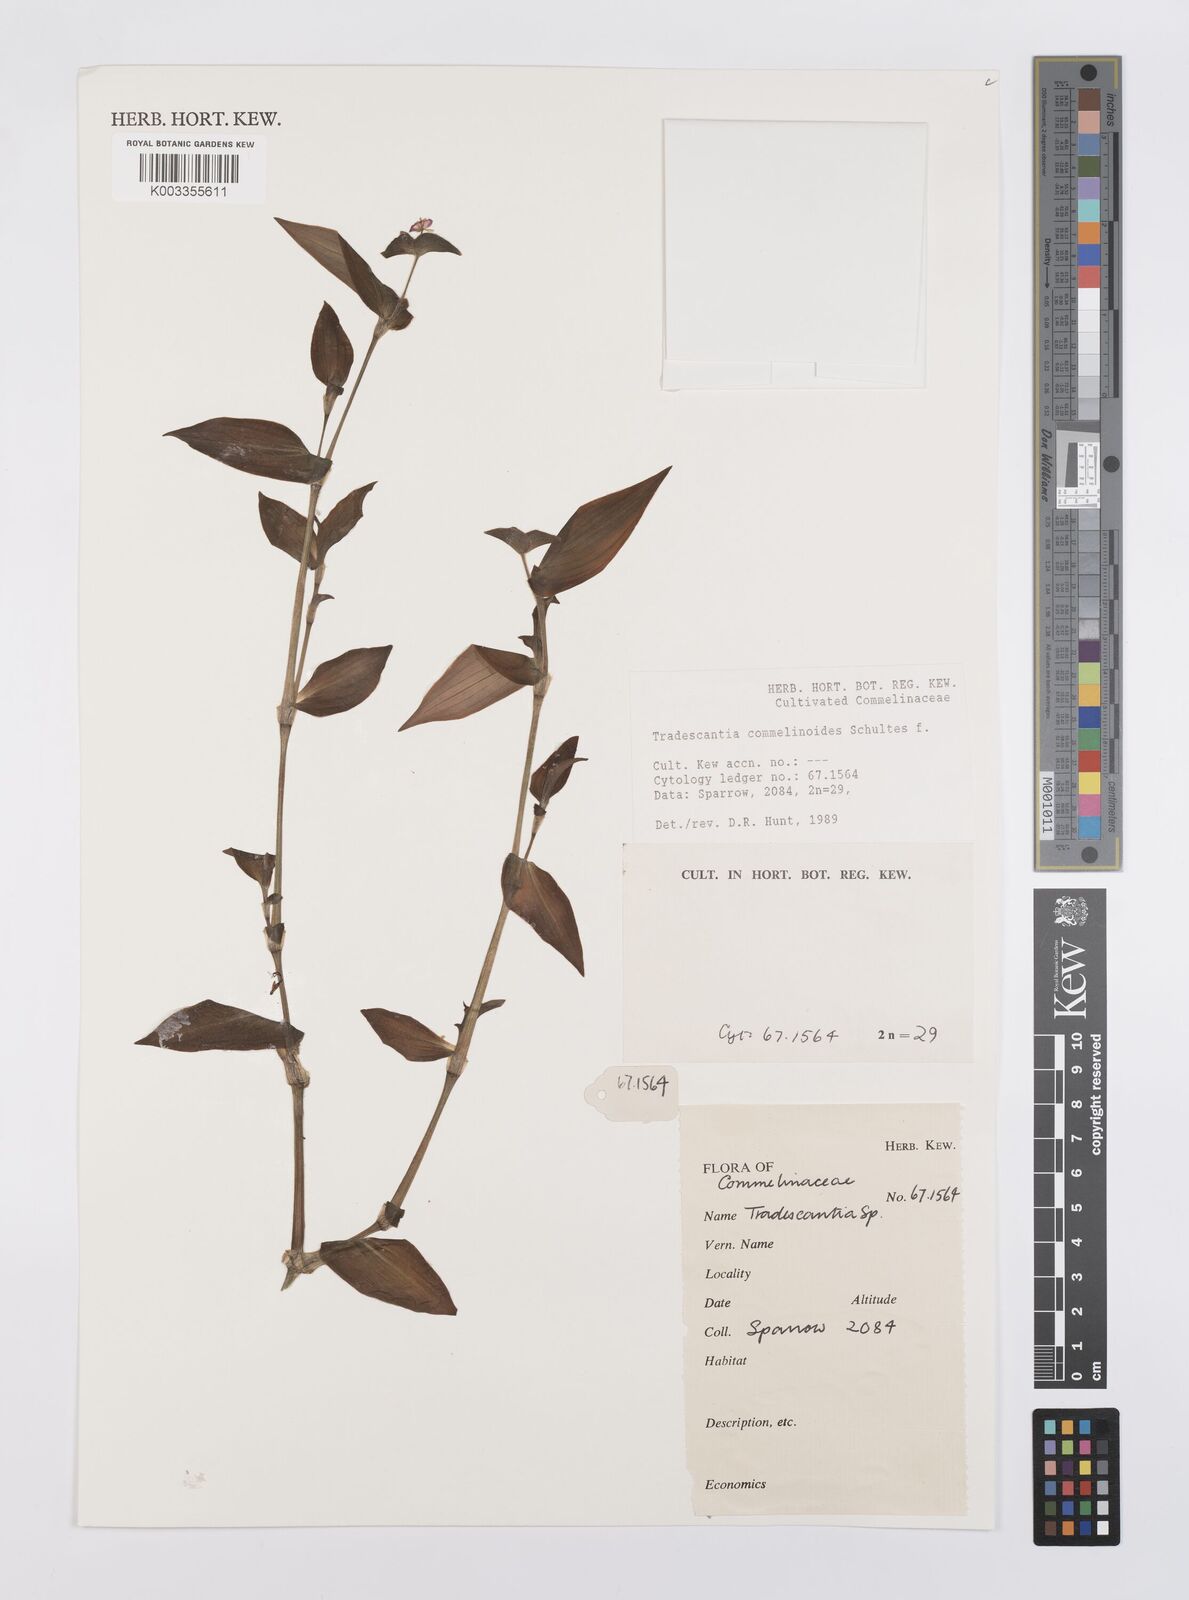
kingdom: Plantae
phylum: Tracheophyta
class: Liliopsida
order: Commelinales
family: Commelinaceae
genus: Tradescantia
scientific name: Tradescantia commelinoides
